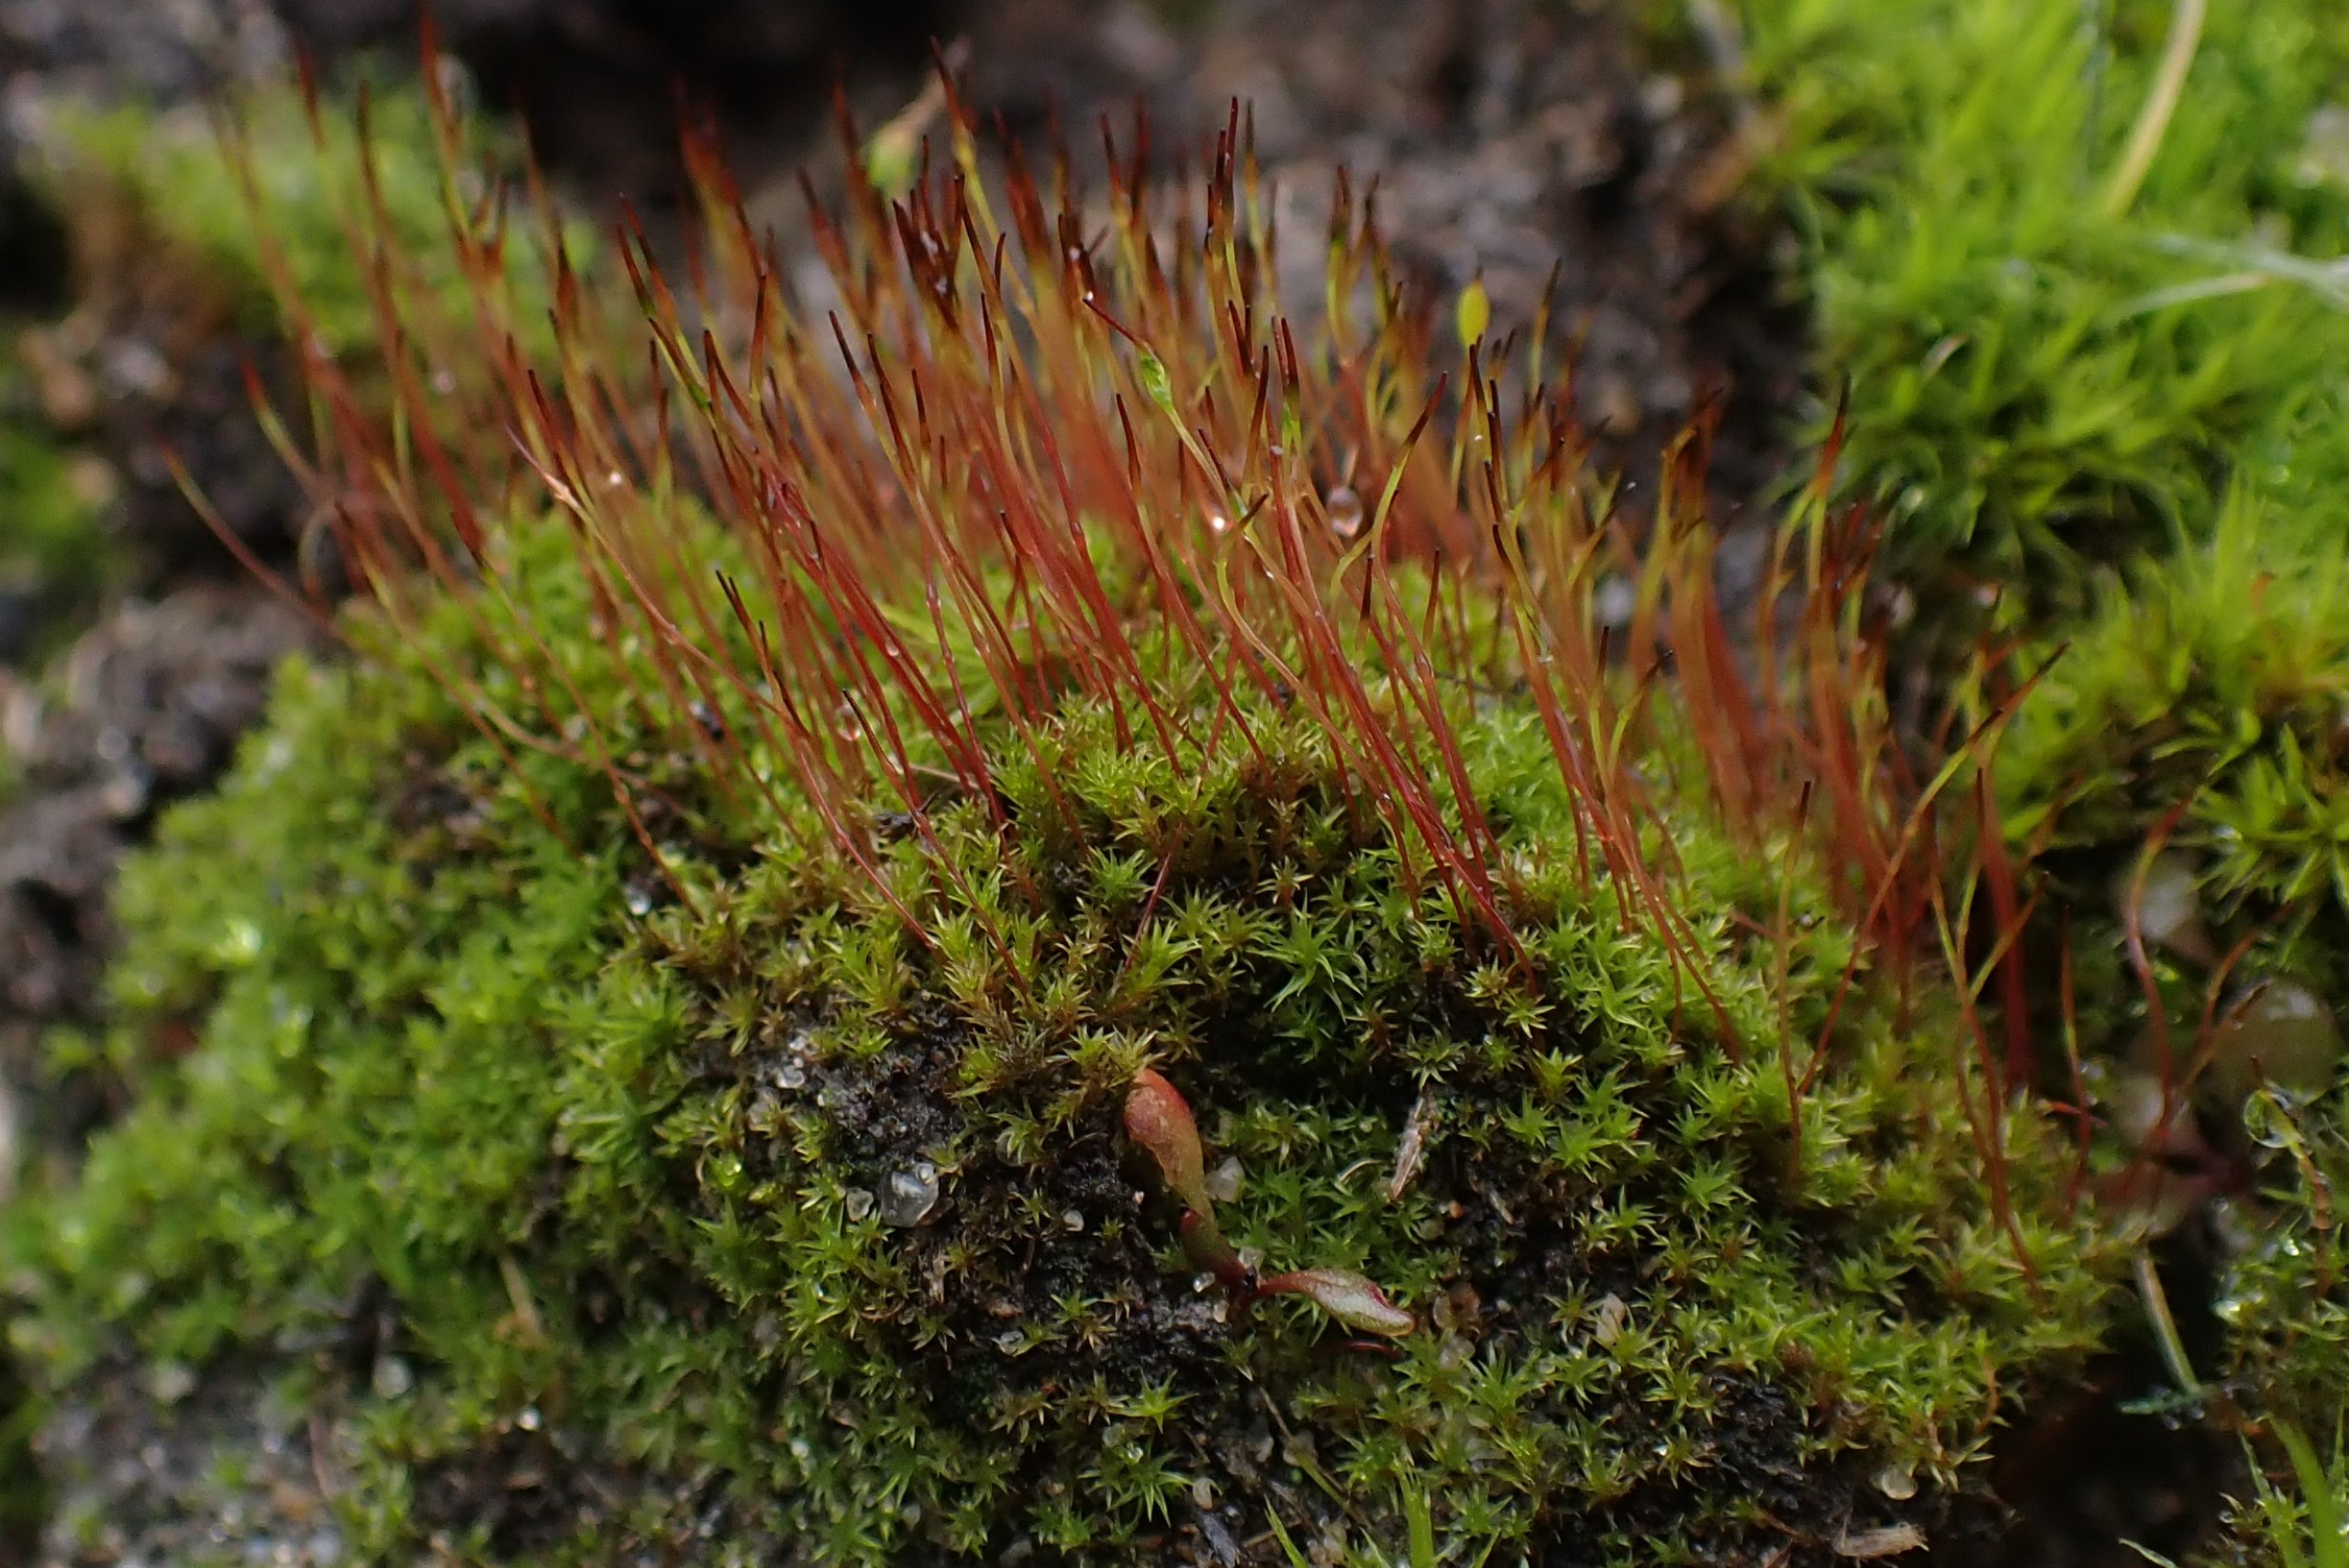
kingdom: Plantae
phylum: Bryophyta
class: Bryopsida
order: Dicranales
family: Ditrichaceae
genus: Ceratodon
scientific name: Ceratodon purpureus
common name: Rød horntand
